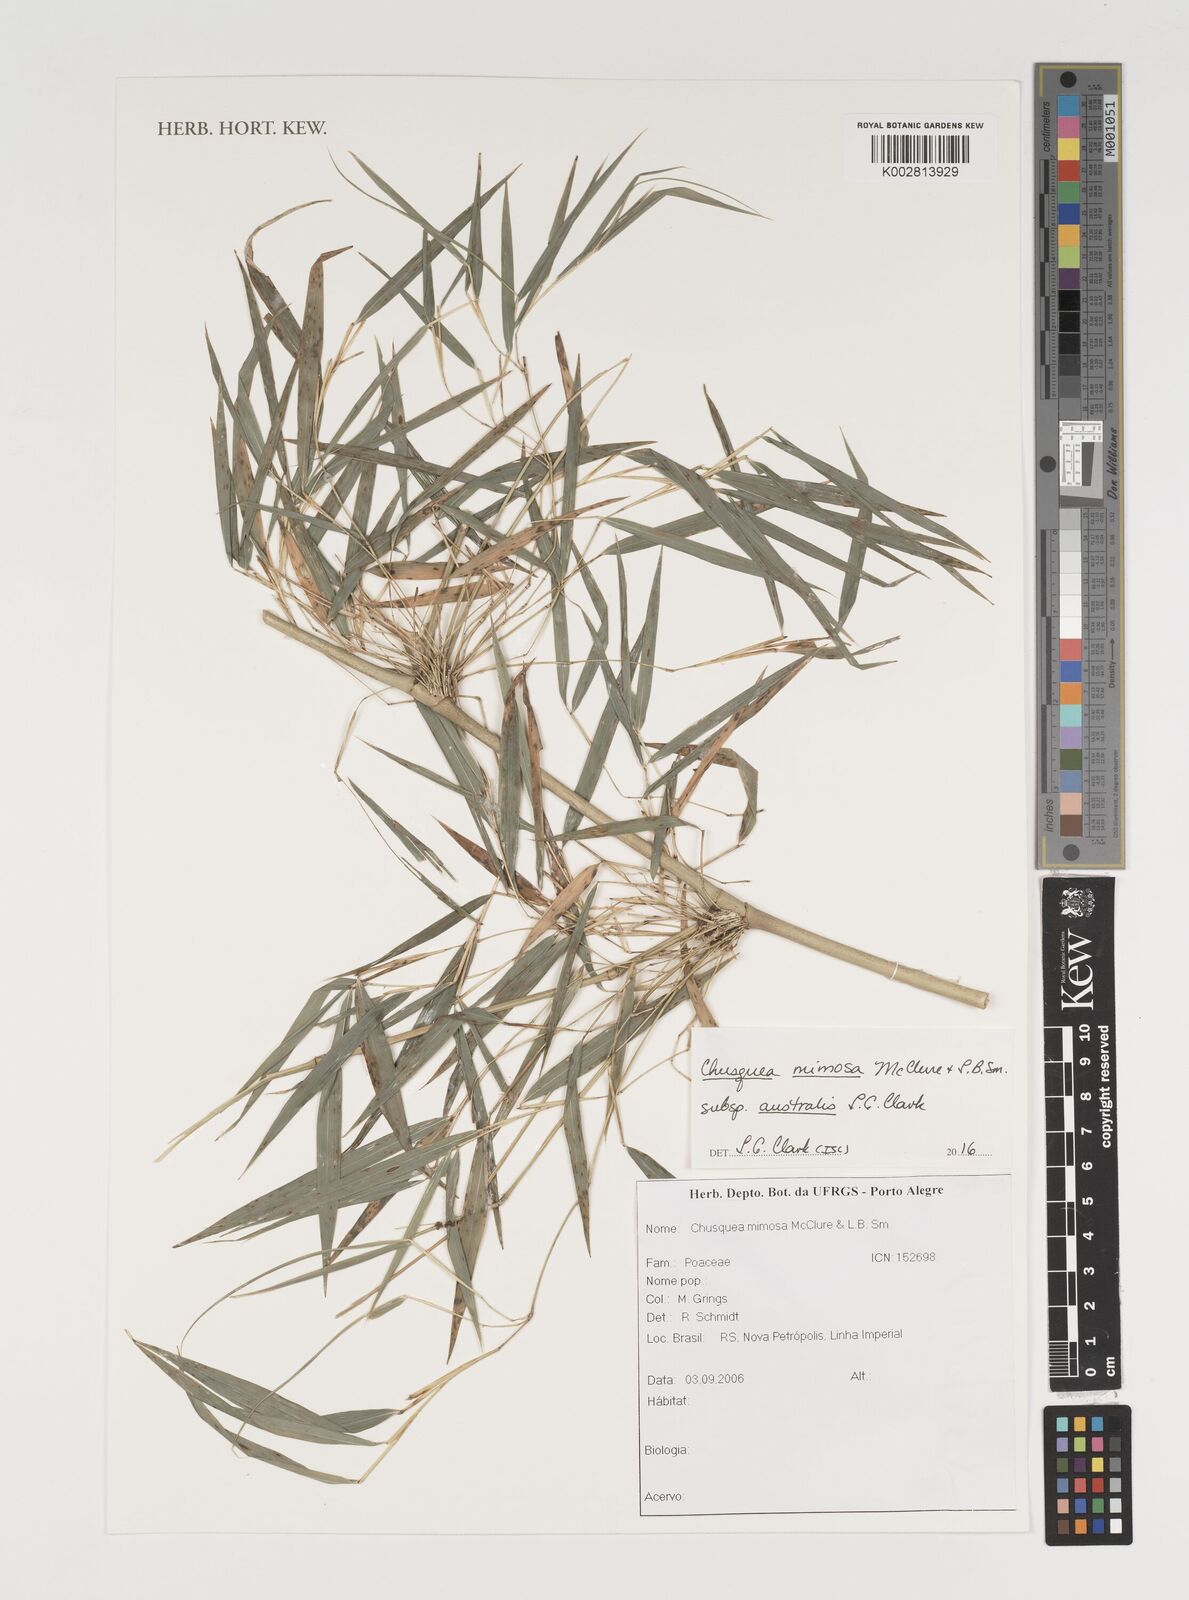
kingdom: Plantae
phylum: Tracheophyta
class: Liliopsida
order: Poales
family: Poaceae
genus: Chusquea
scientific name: Chusquea mimosa
